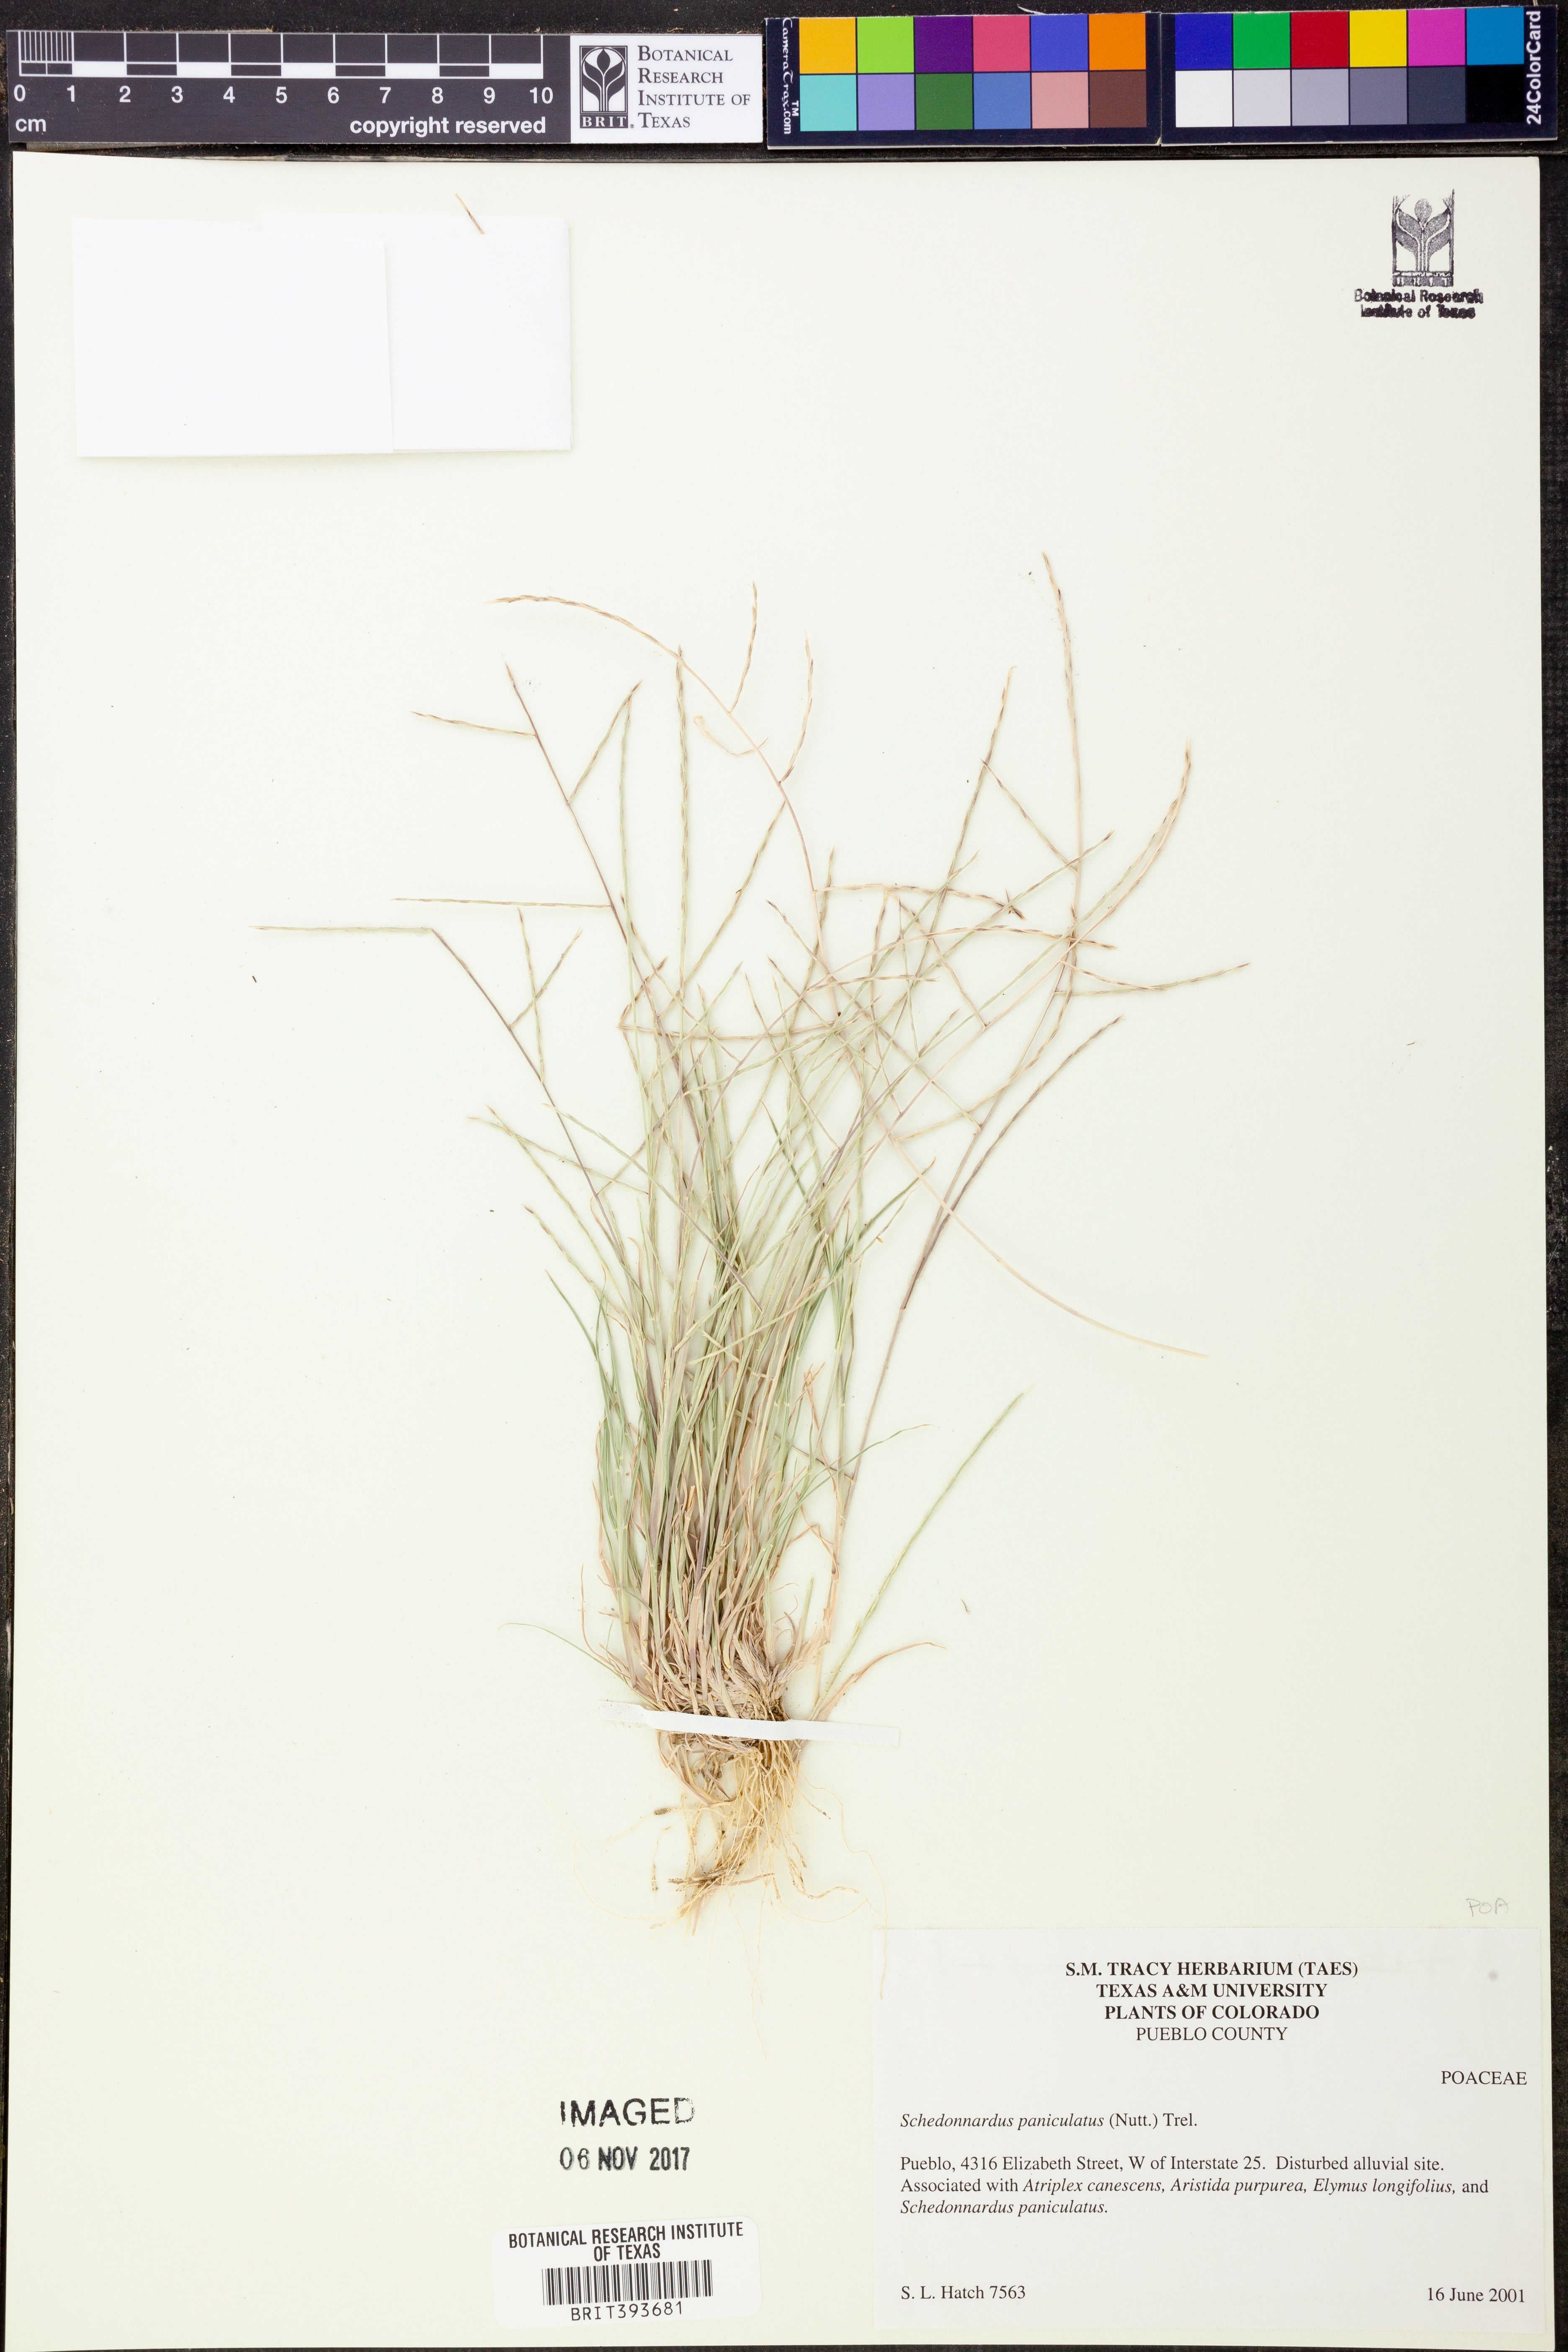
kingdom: Plantae
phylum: Tracheophyta
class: Liliopsida
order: Poales
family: Poaceae
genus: Muhlenbergia
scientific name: Muhlenbergia paniculata
